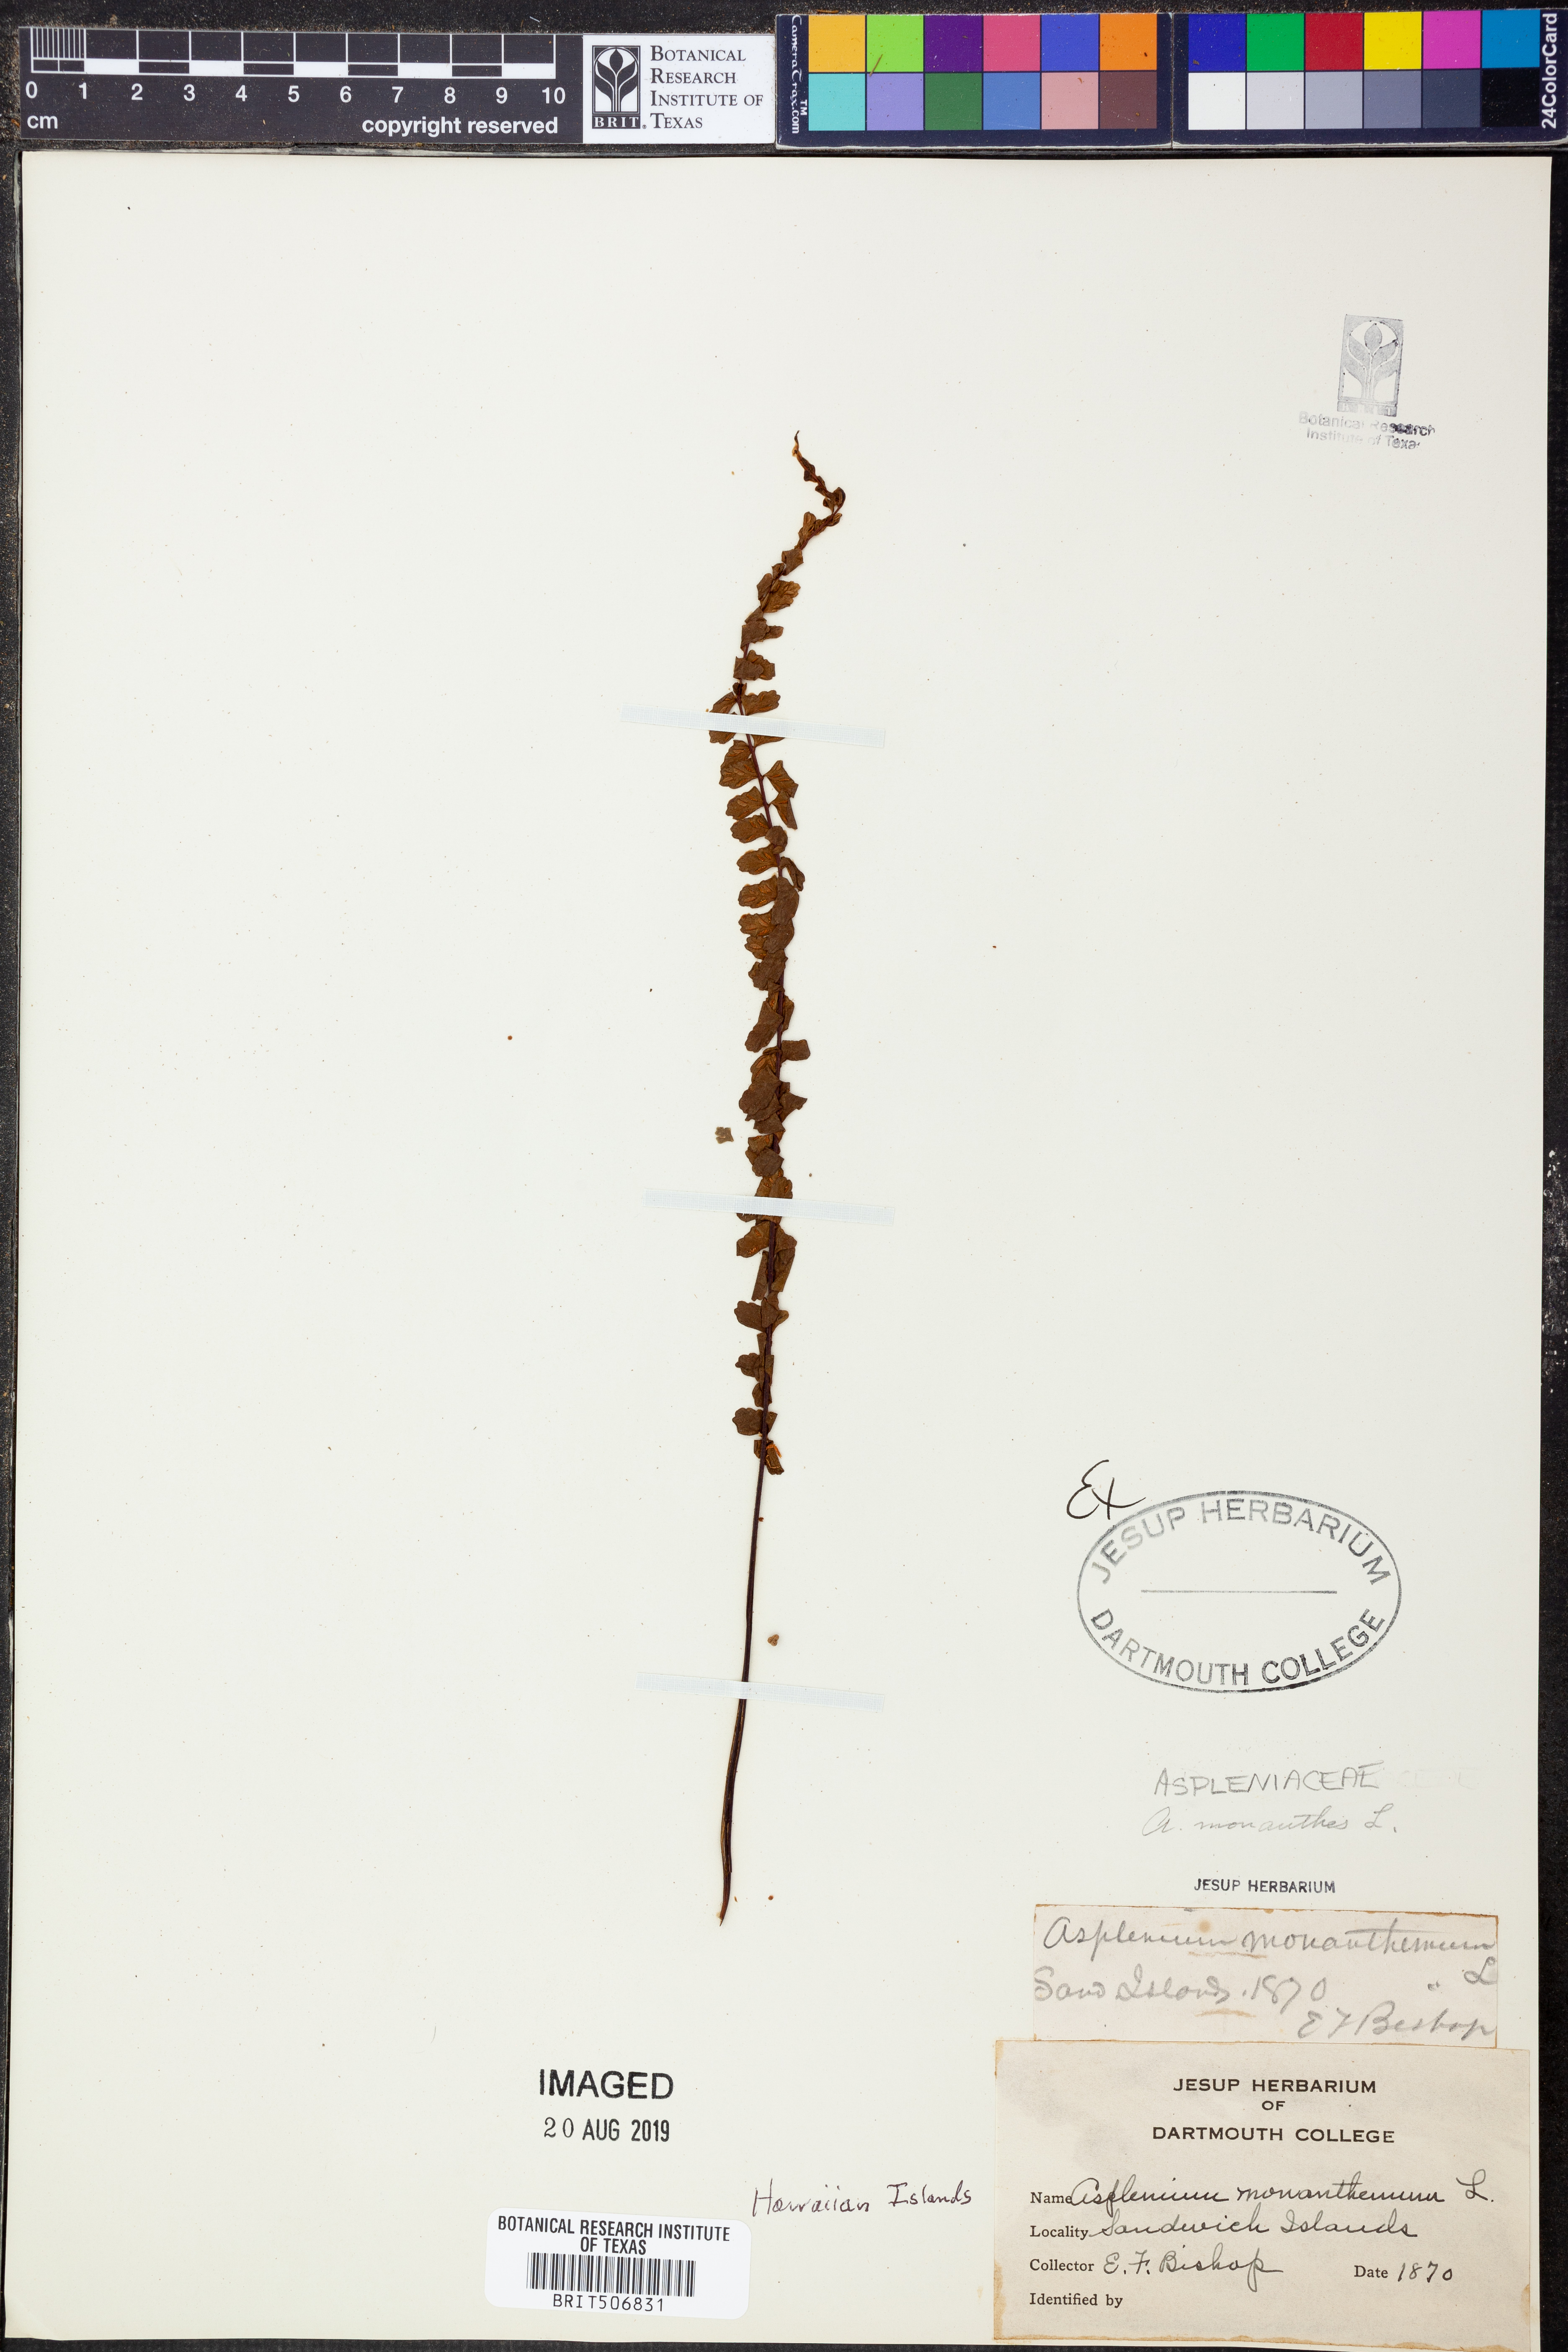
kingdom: Plantae
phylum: Tracheophyta
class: Polypodiopsida
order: Polypodiales
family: Aspleniaceae
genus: Asplenium
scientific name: Asplenium monanthes
